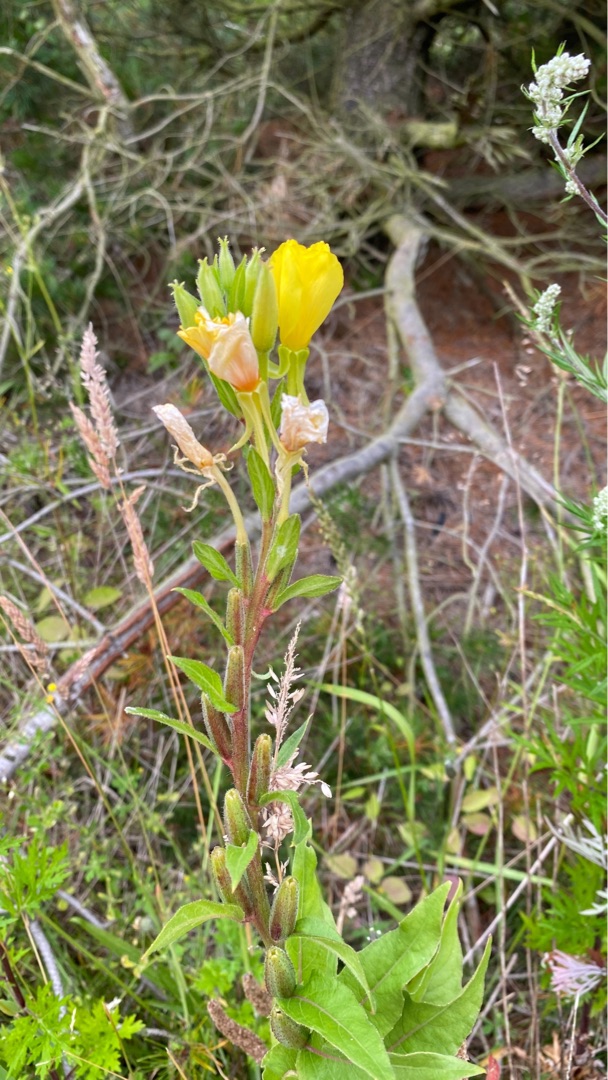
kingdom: Plantae
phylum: Tracheophyta
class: Magnoliopsida
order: Myrtales
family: Onagraceae
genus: Oenothera
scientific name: Oenothera biennis
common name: Rødfrugtet natlys
